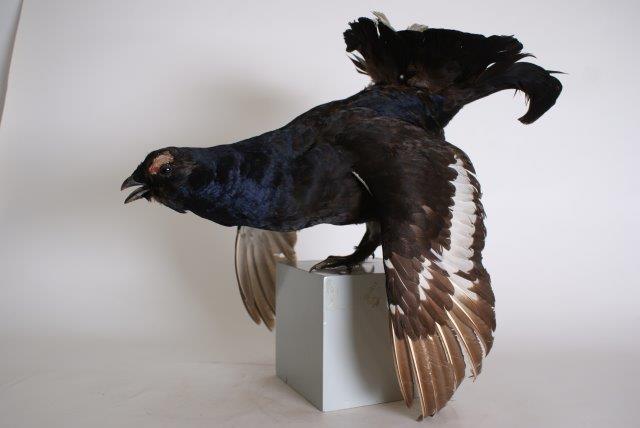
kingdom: Animalia
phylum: Chordata
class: Aves
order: Galliformes
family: Phasianidae
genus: Lyrurus
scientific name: Lyrurus tetrix
